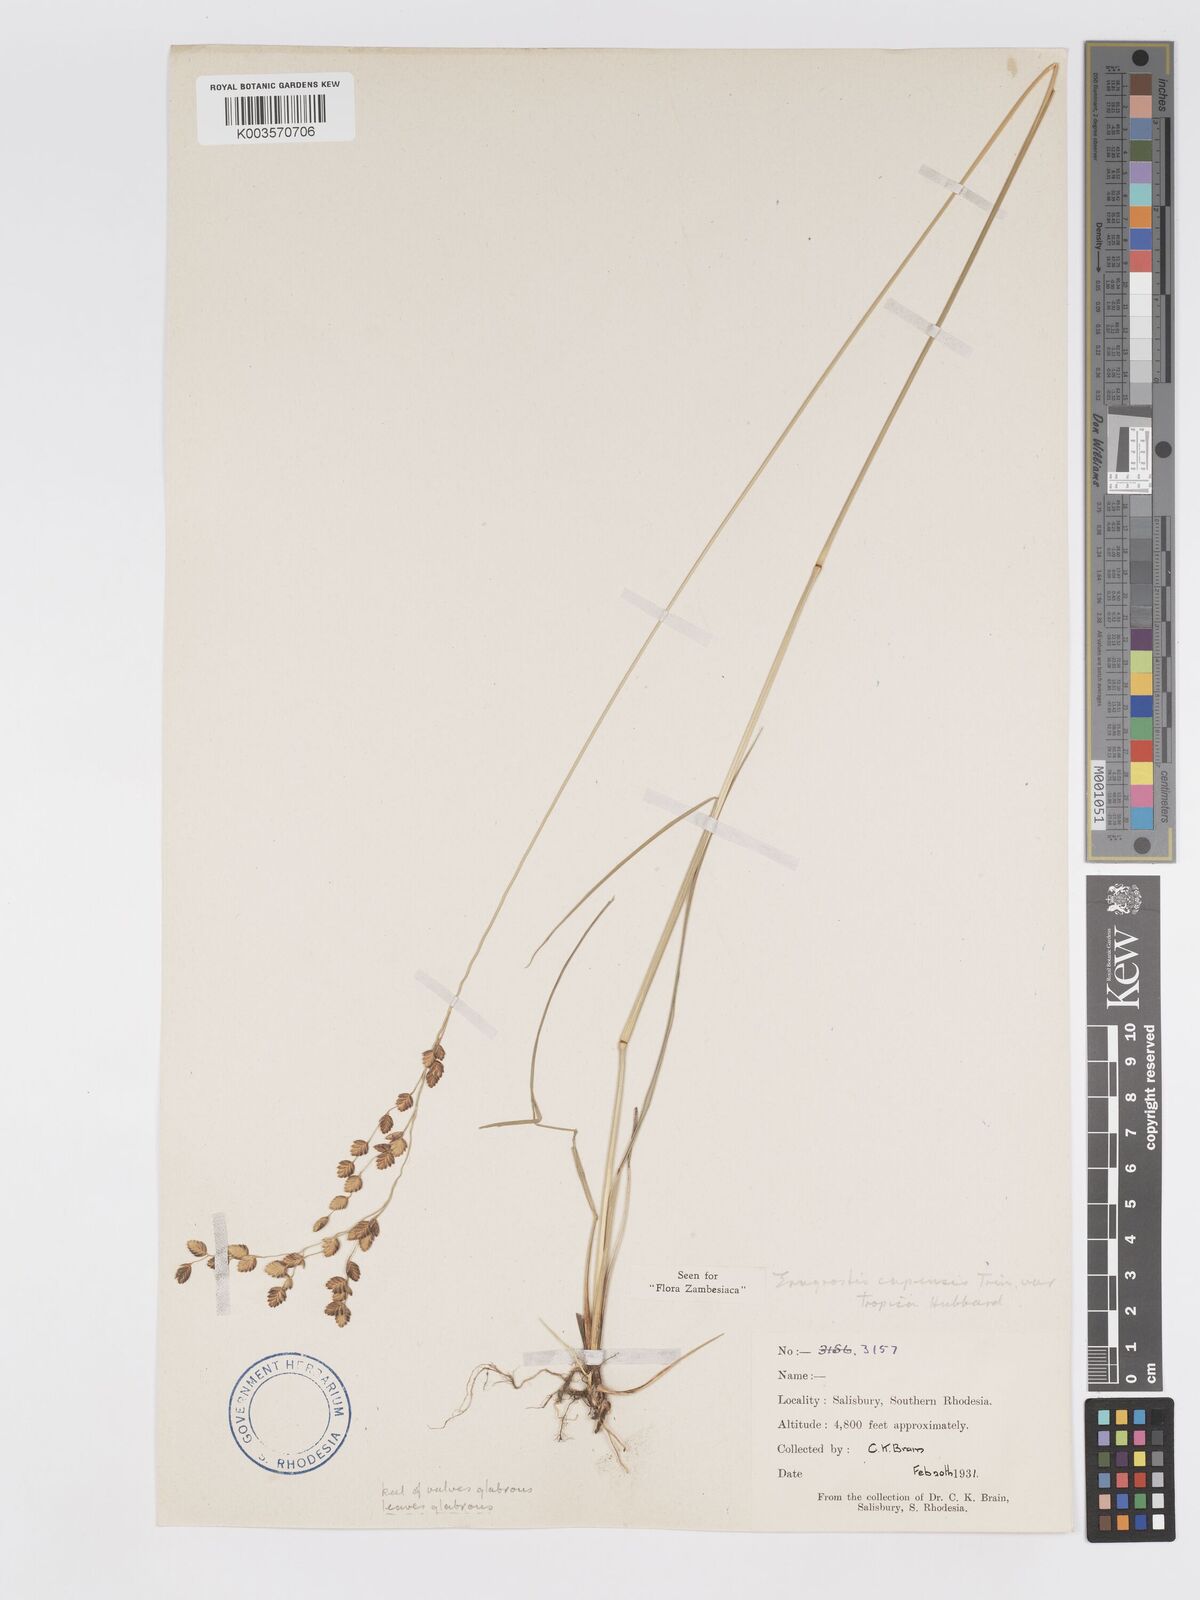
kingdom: Plantae
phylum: Tracheophyta
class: Liliopsida
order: Poales
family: Poaceae
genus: Eragrostis
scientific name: Eragrostis capensis
